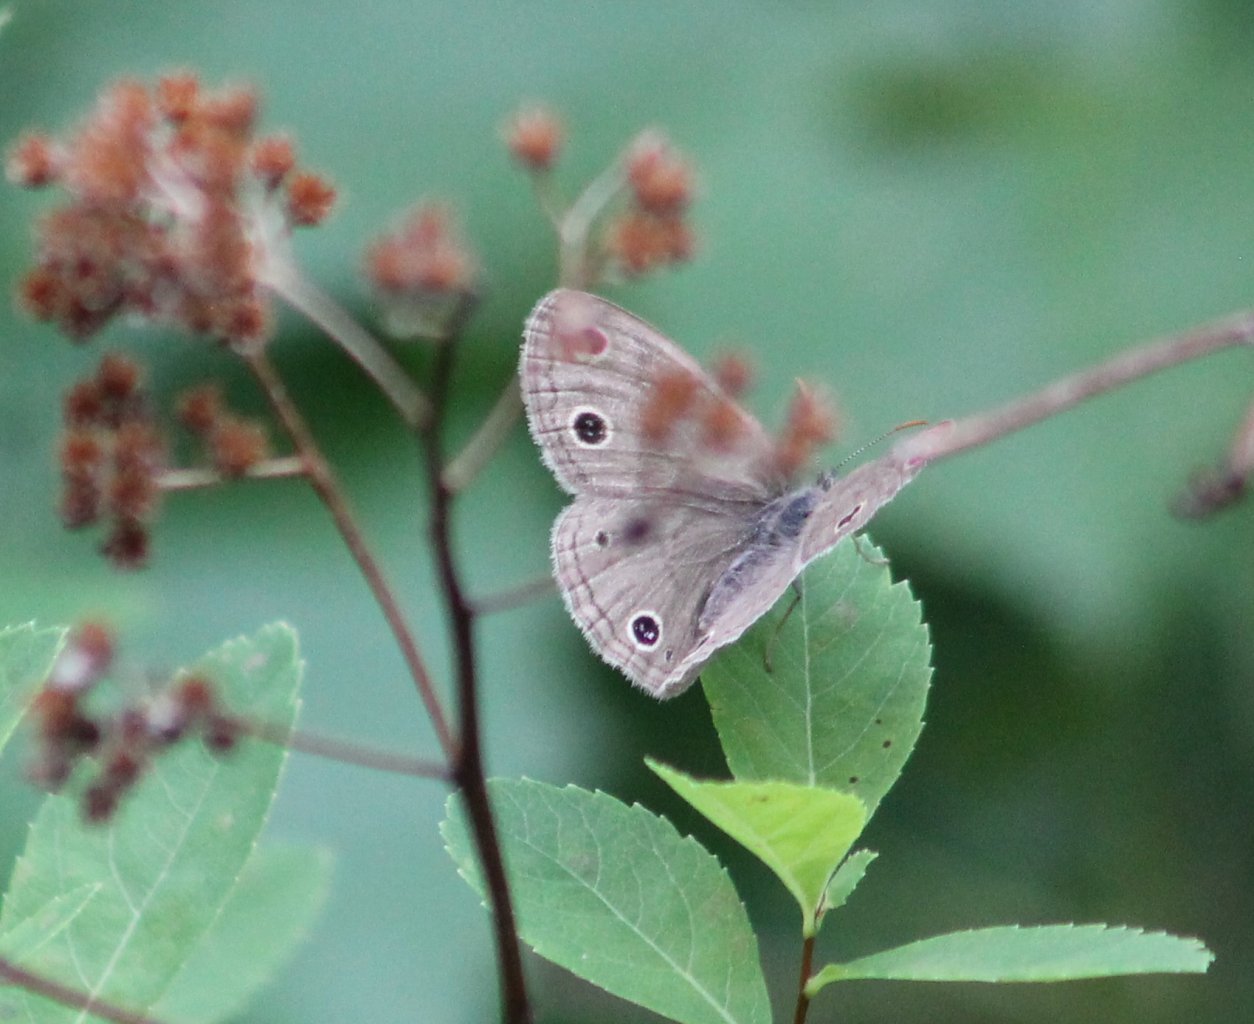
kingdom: Animalia
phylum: Arthropoda
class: Insecta
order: Lepidoptera
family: Nymphalidae
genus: Euptychia
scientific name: Euptychia cymela
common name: Little Wood Satyr
